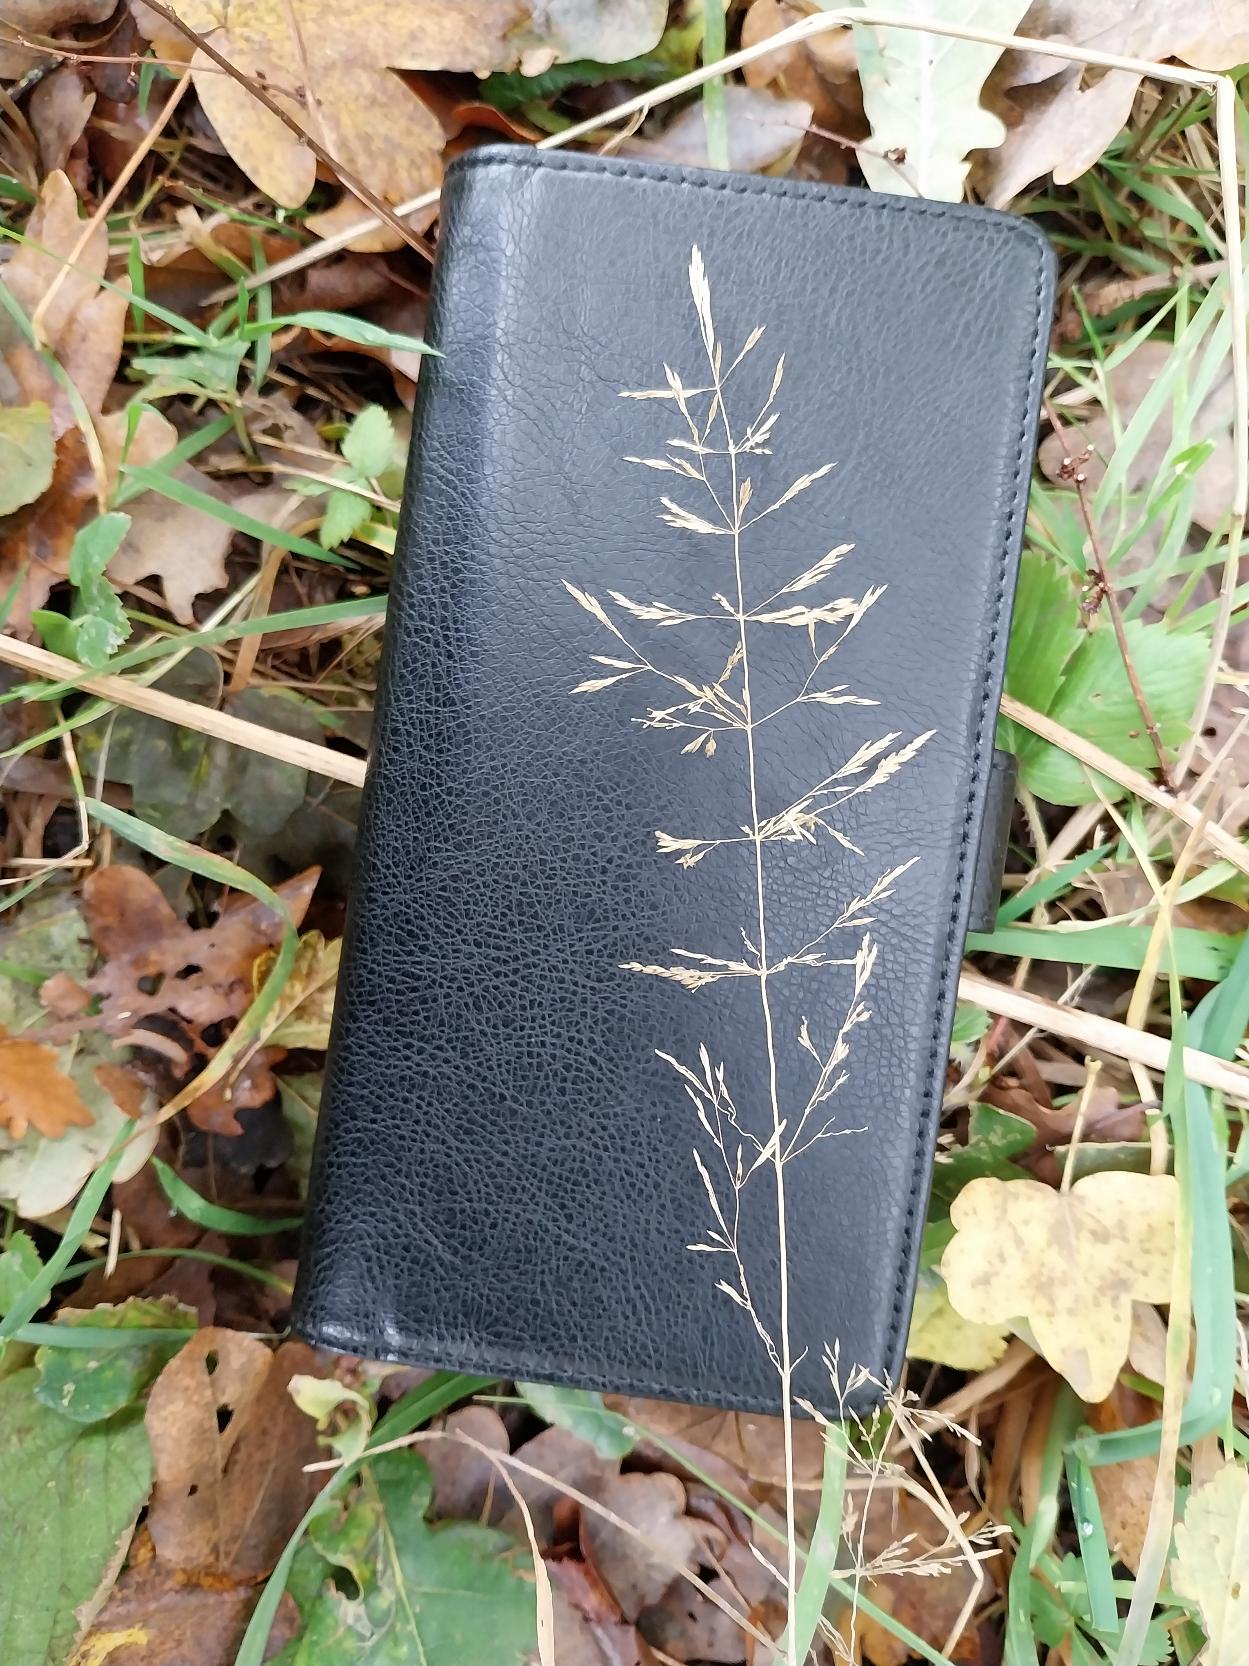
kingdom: Plantae
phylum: Tracheophyta
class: Liliopsida
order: Poales
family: Poaceae
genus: Agrostis
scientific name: Agrostis capillaris
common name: Almindelig hvene
